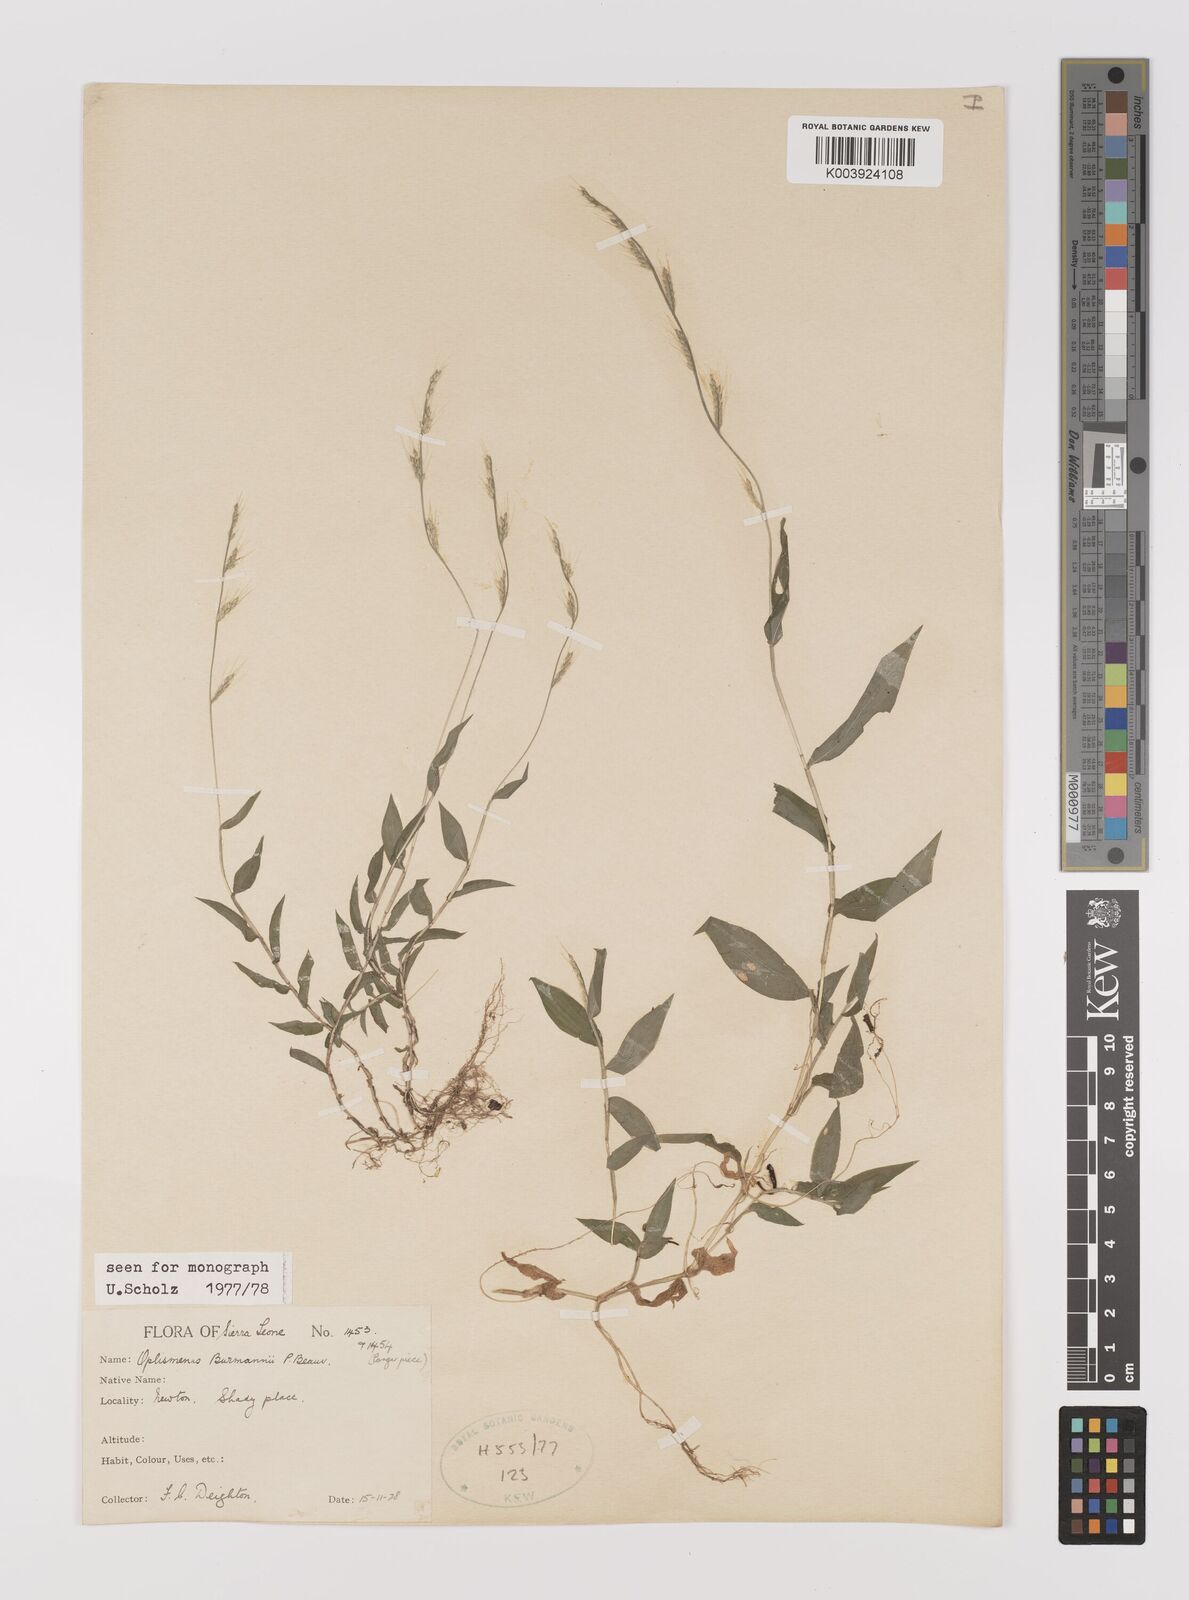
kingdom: Plantae
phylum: Tracheophyta
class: Liliopsida
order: Poales
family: Poaceae
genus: Oplismenus
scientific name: Oplismenus burmanni
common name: Burmann's basketgrass
